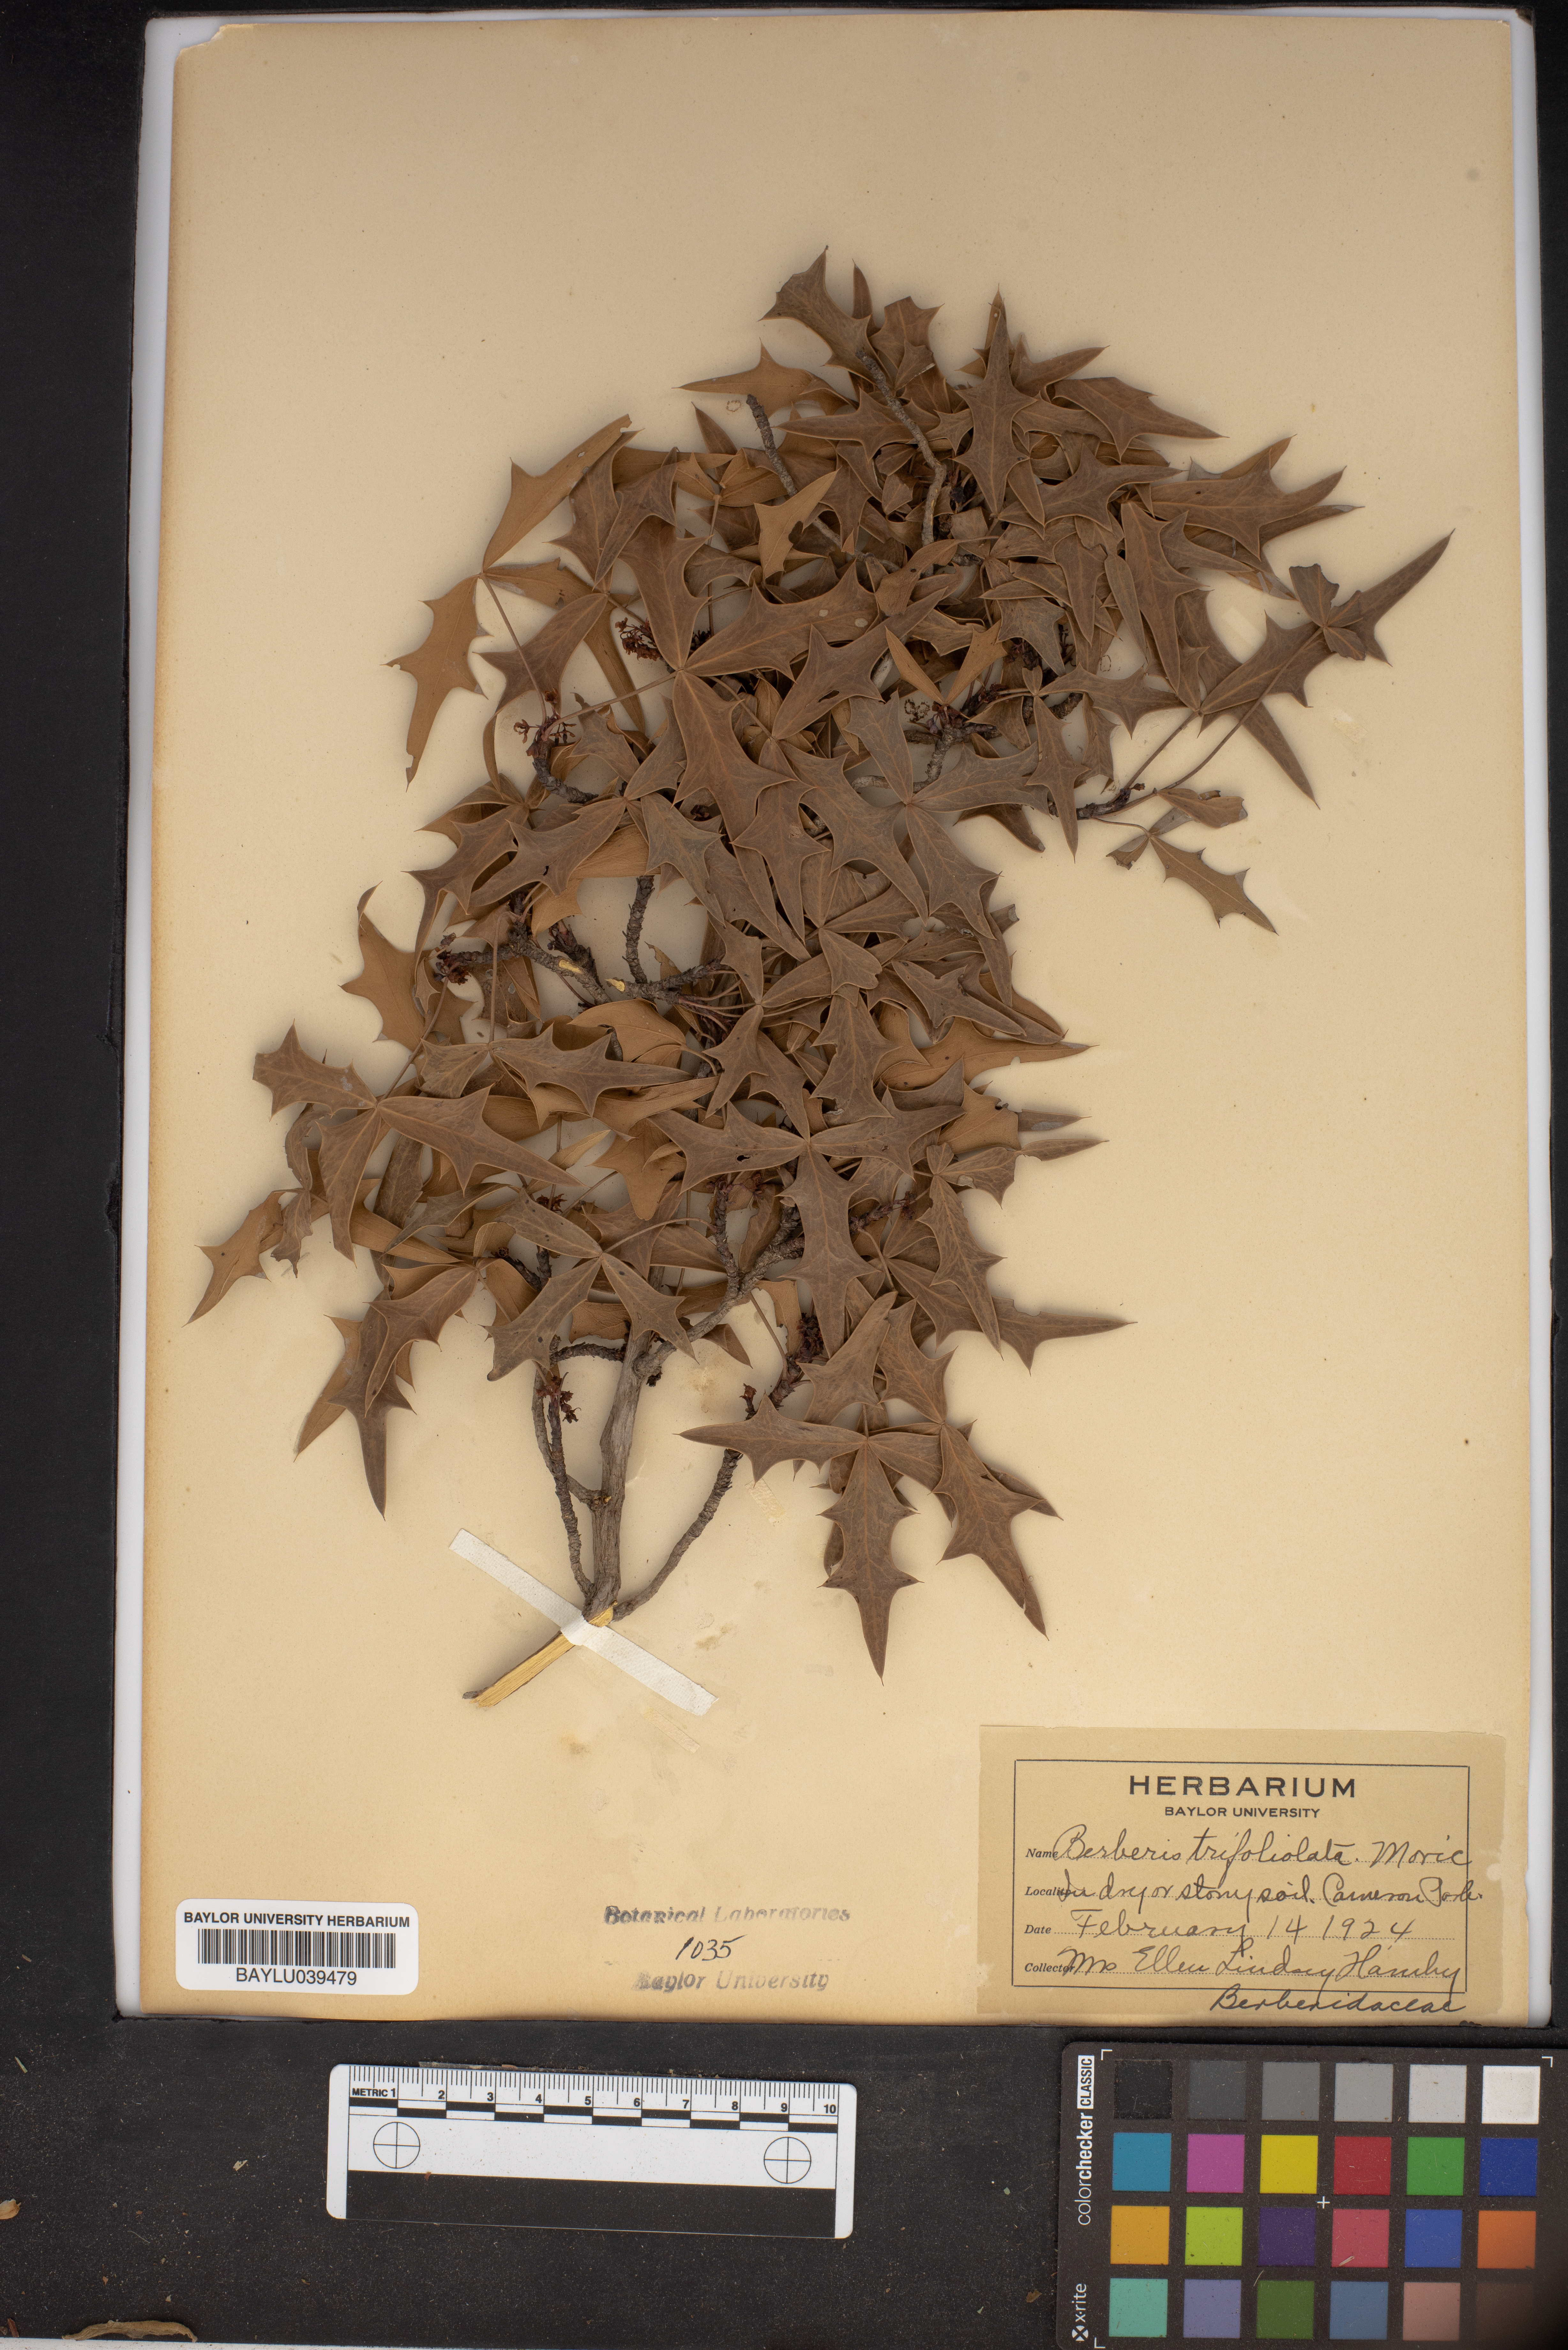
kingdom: Plantae
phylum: Tracheophyta
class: Magnoliopsida
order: Ranunculales
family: Berberidaceae
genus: Alloberberis
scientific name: Alloberberis fremontii
